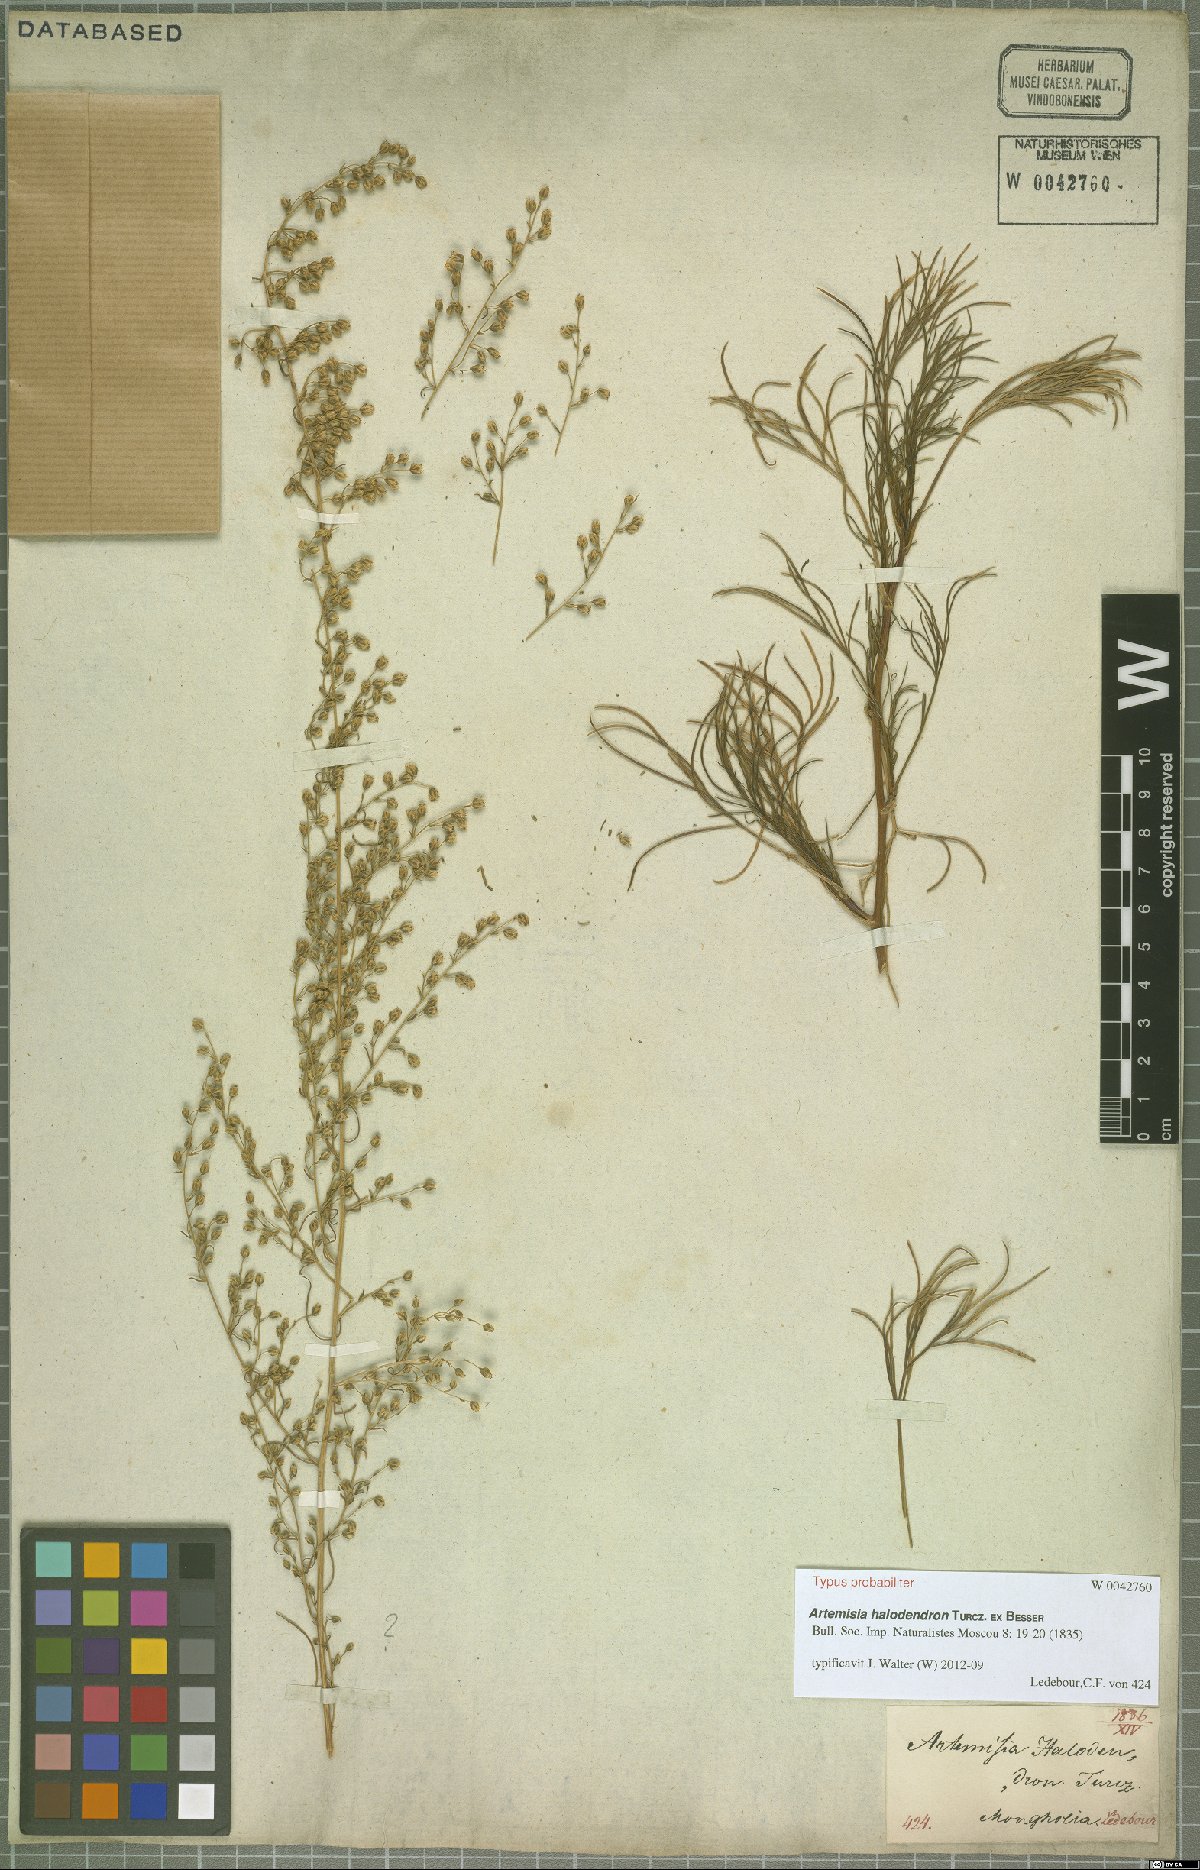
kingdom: Plantae
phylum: Tracheophyta
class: Magnoliopsida
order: Asterales
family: Asteraceae
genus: Artemisia
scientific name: Artemisia halodendron
